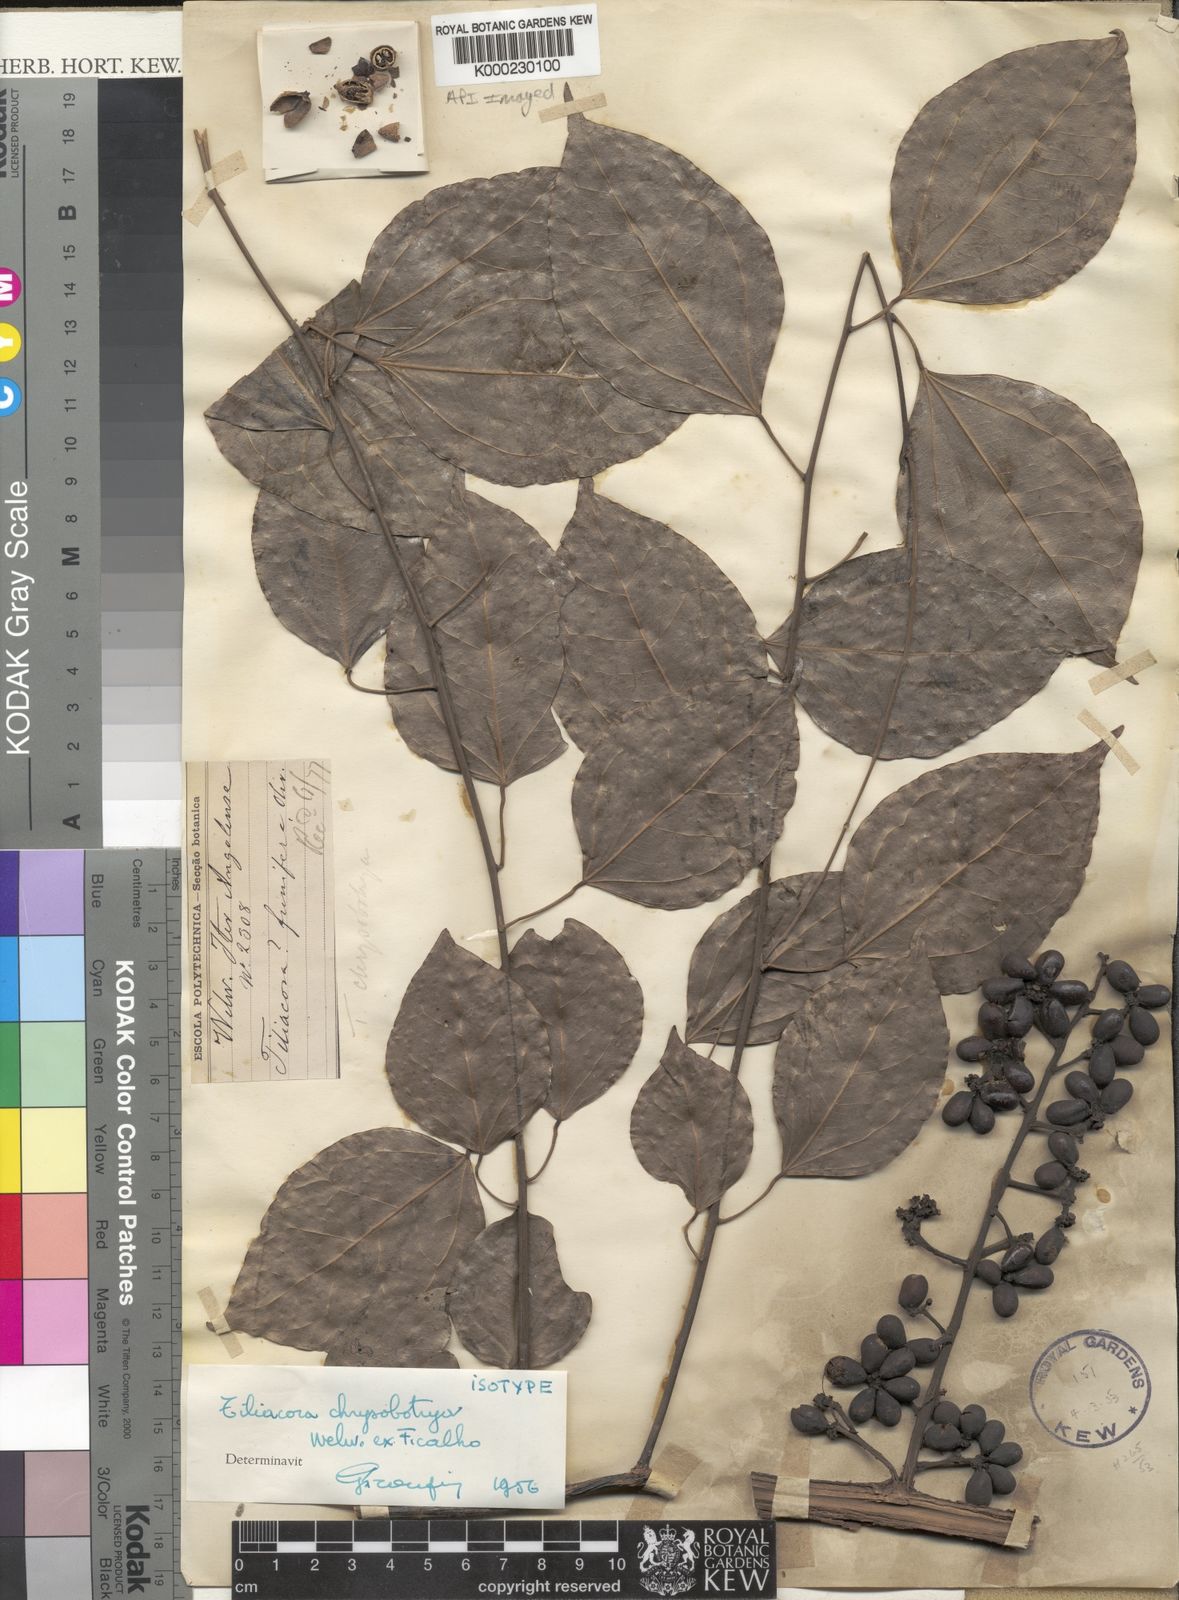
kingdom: Plantae
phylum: Tracheophyta
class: Magnoliopsida
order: Ranunculales
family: Menispermaceae
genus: Tiliacora
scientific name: Tiliacora
